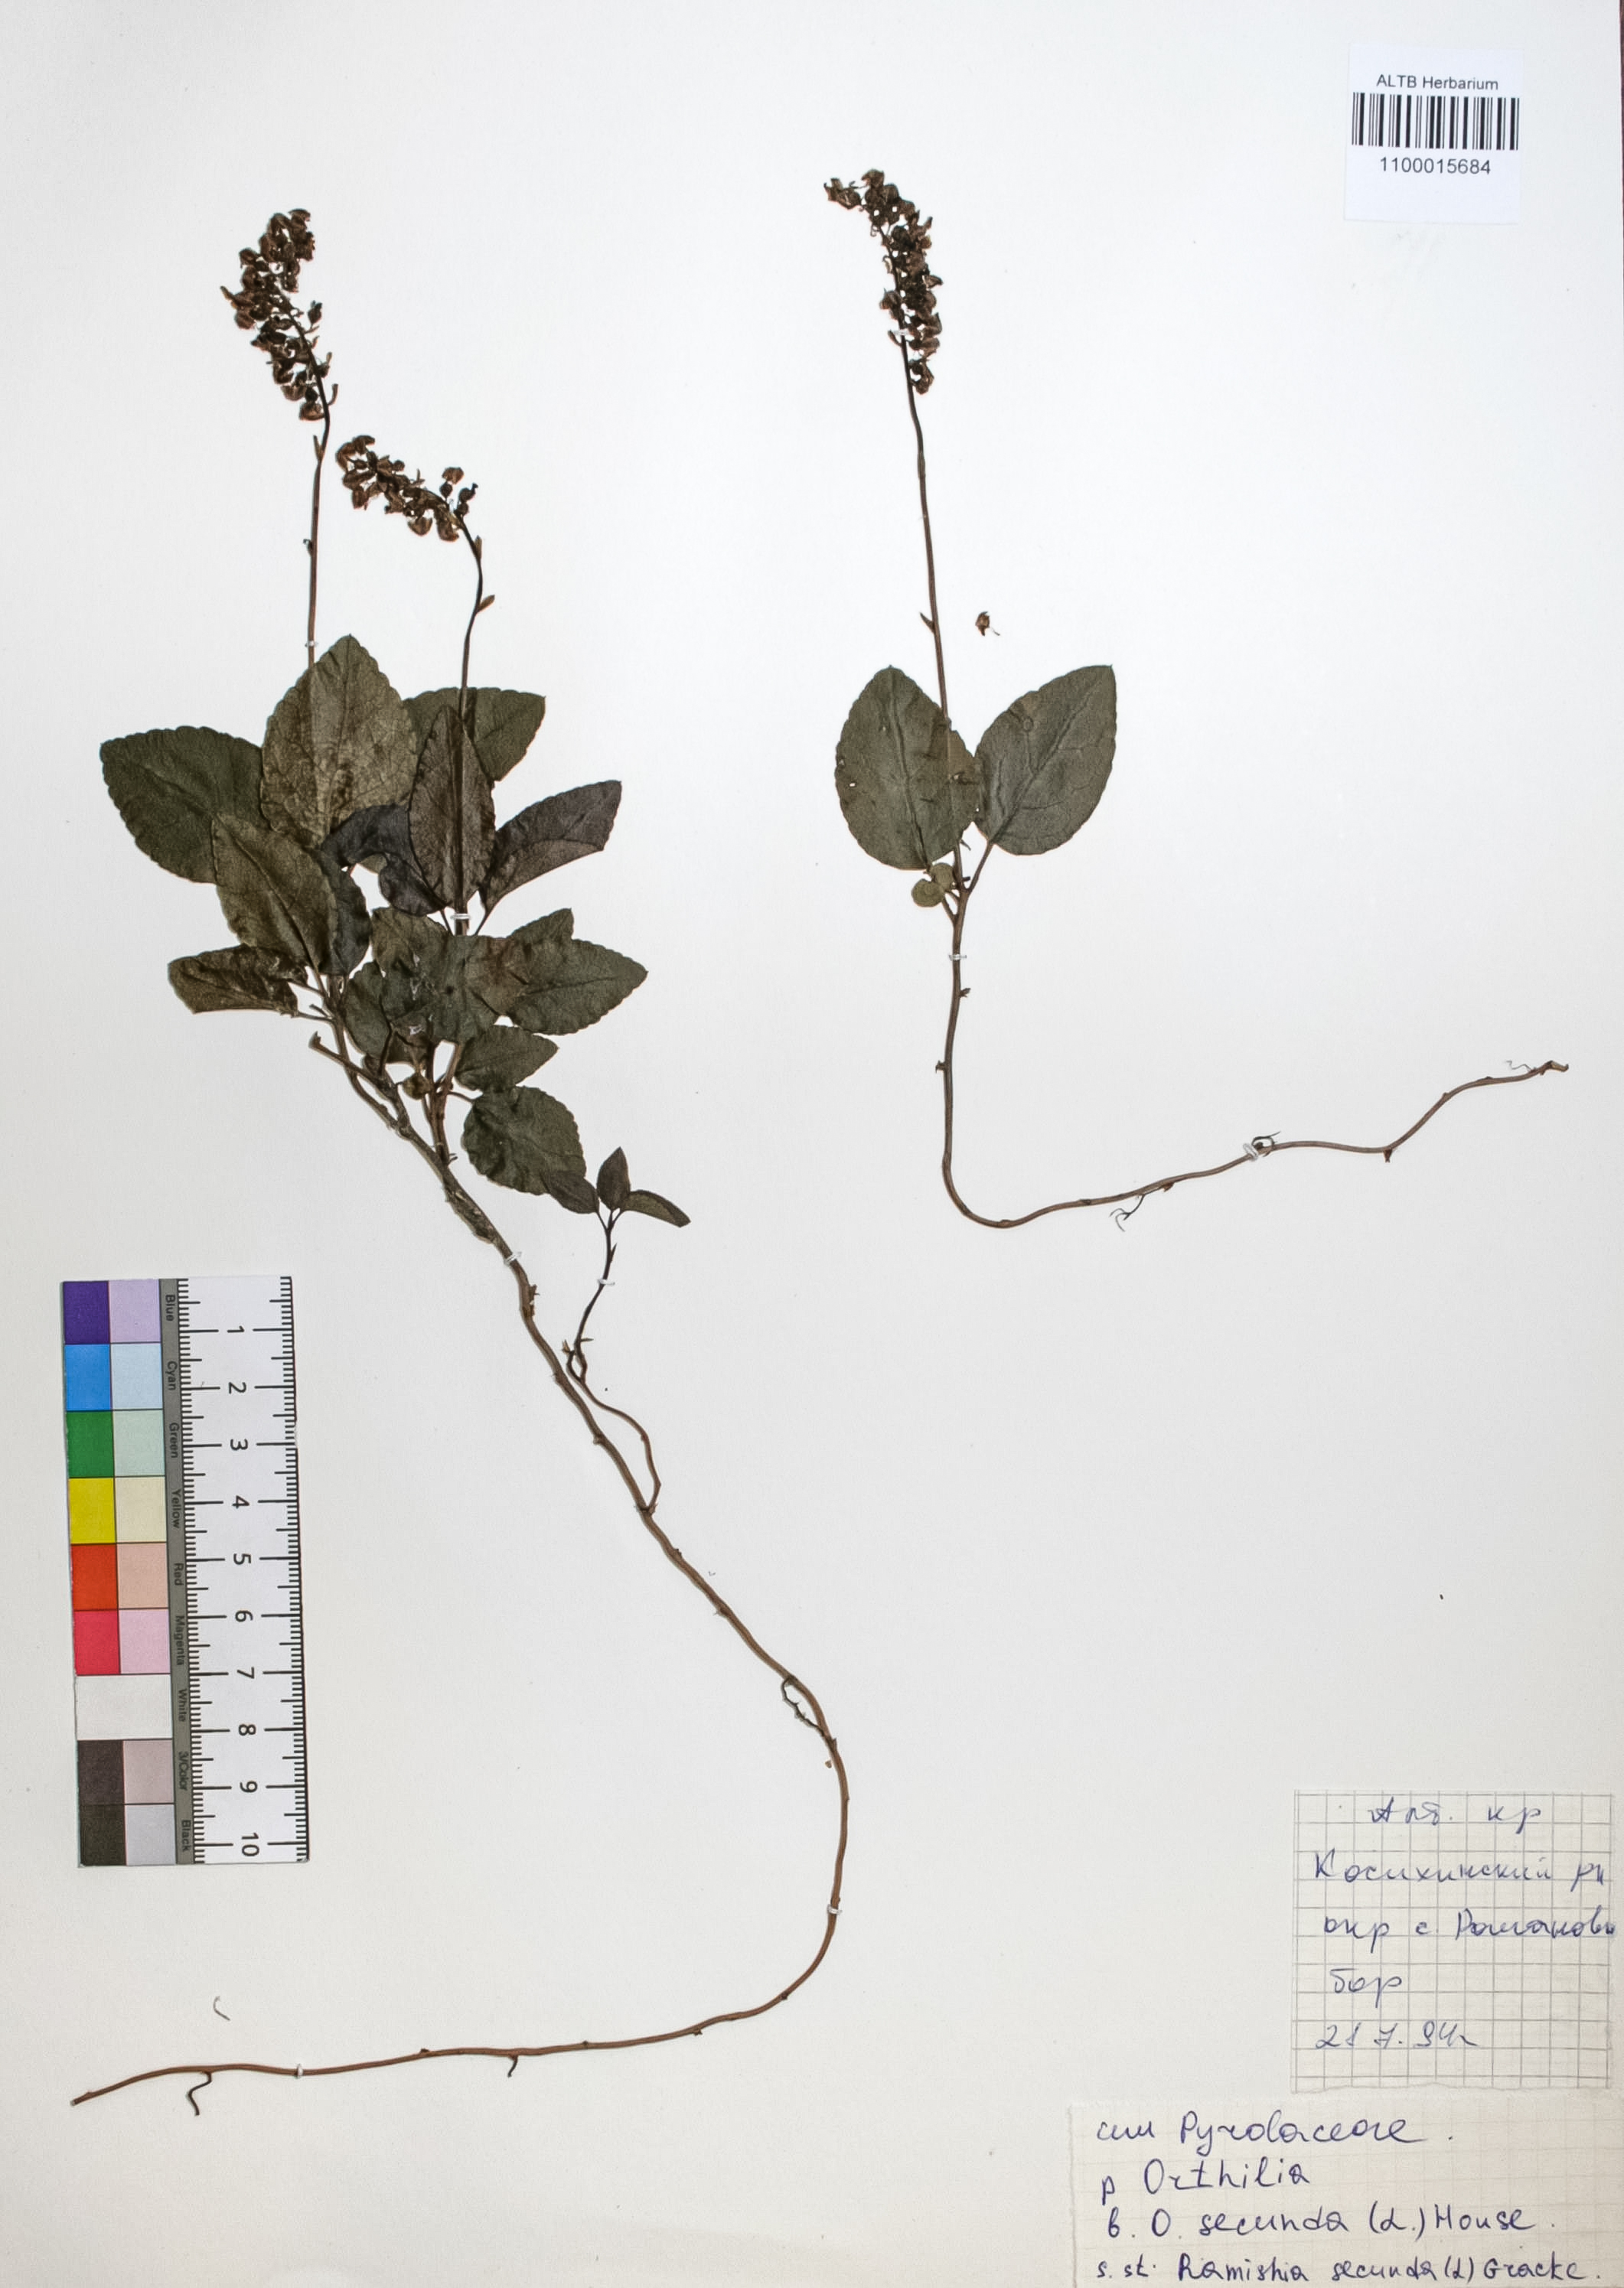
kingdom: Plantae
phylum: Tracheophyta
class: Magnoliopsida
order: Ericales
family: Ericaceae
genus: Orthilia
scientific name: Orthilia secunda
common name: One-sided orthilia
